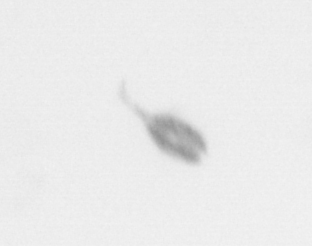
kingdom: Animalia
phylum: Arthropoda
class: Copepoda
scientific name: Copepoda
